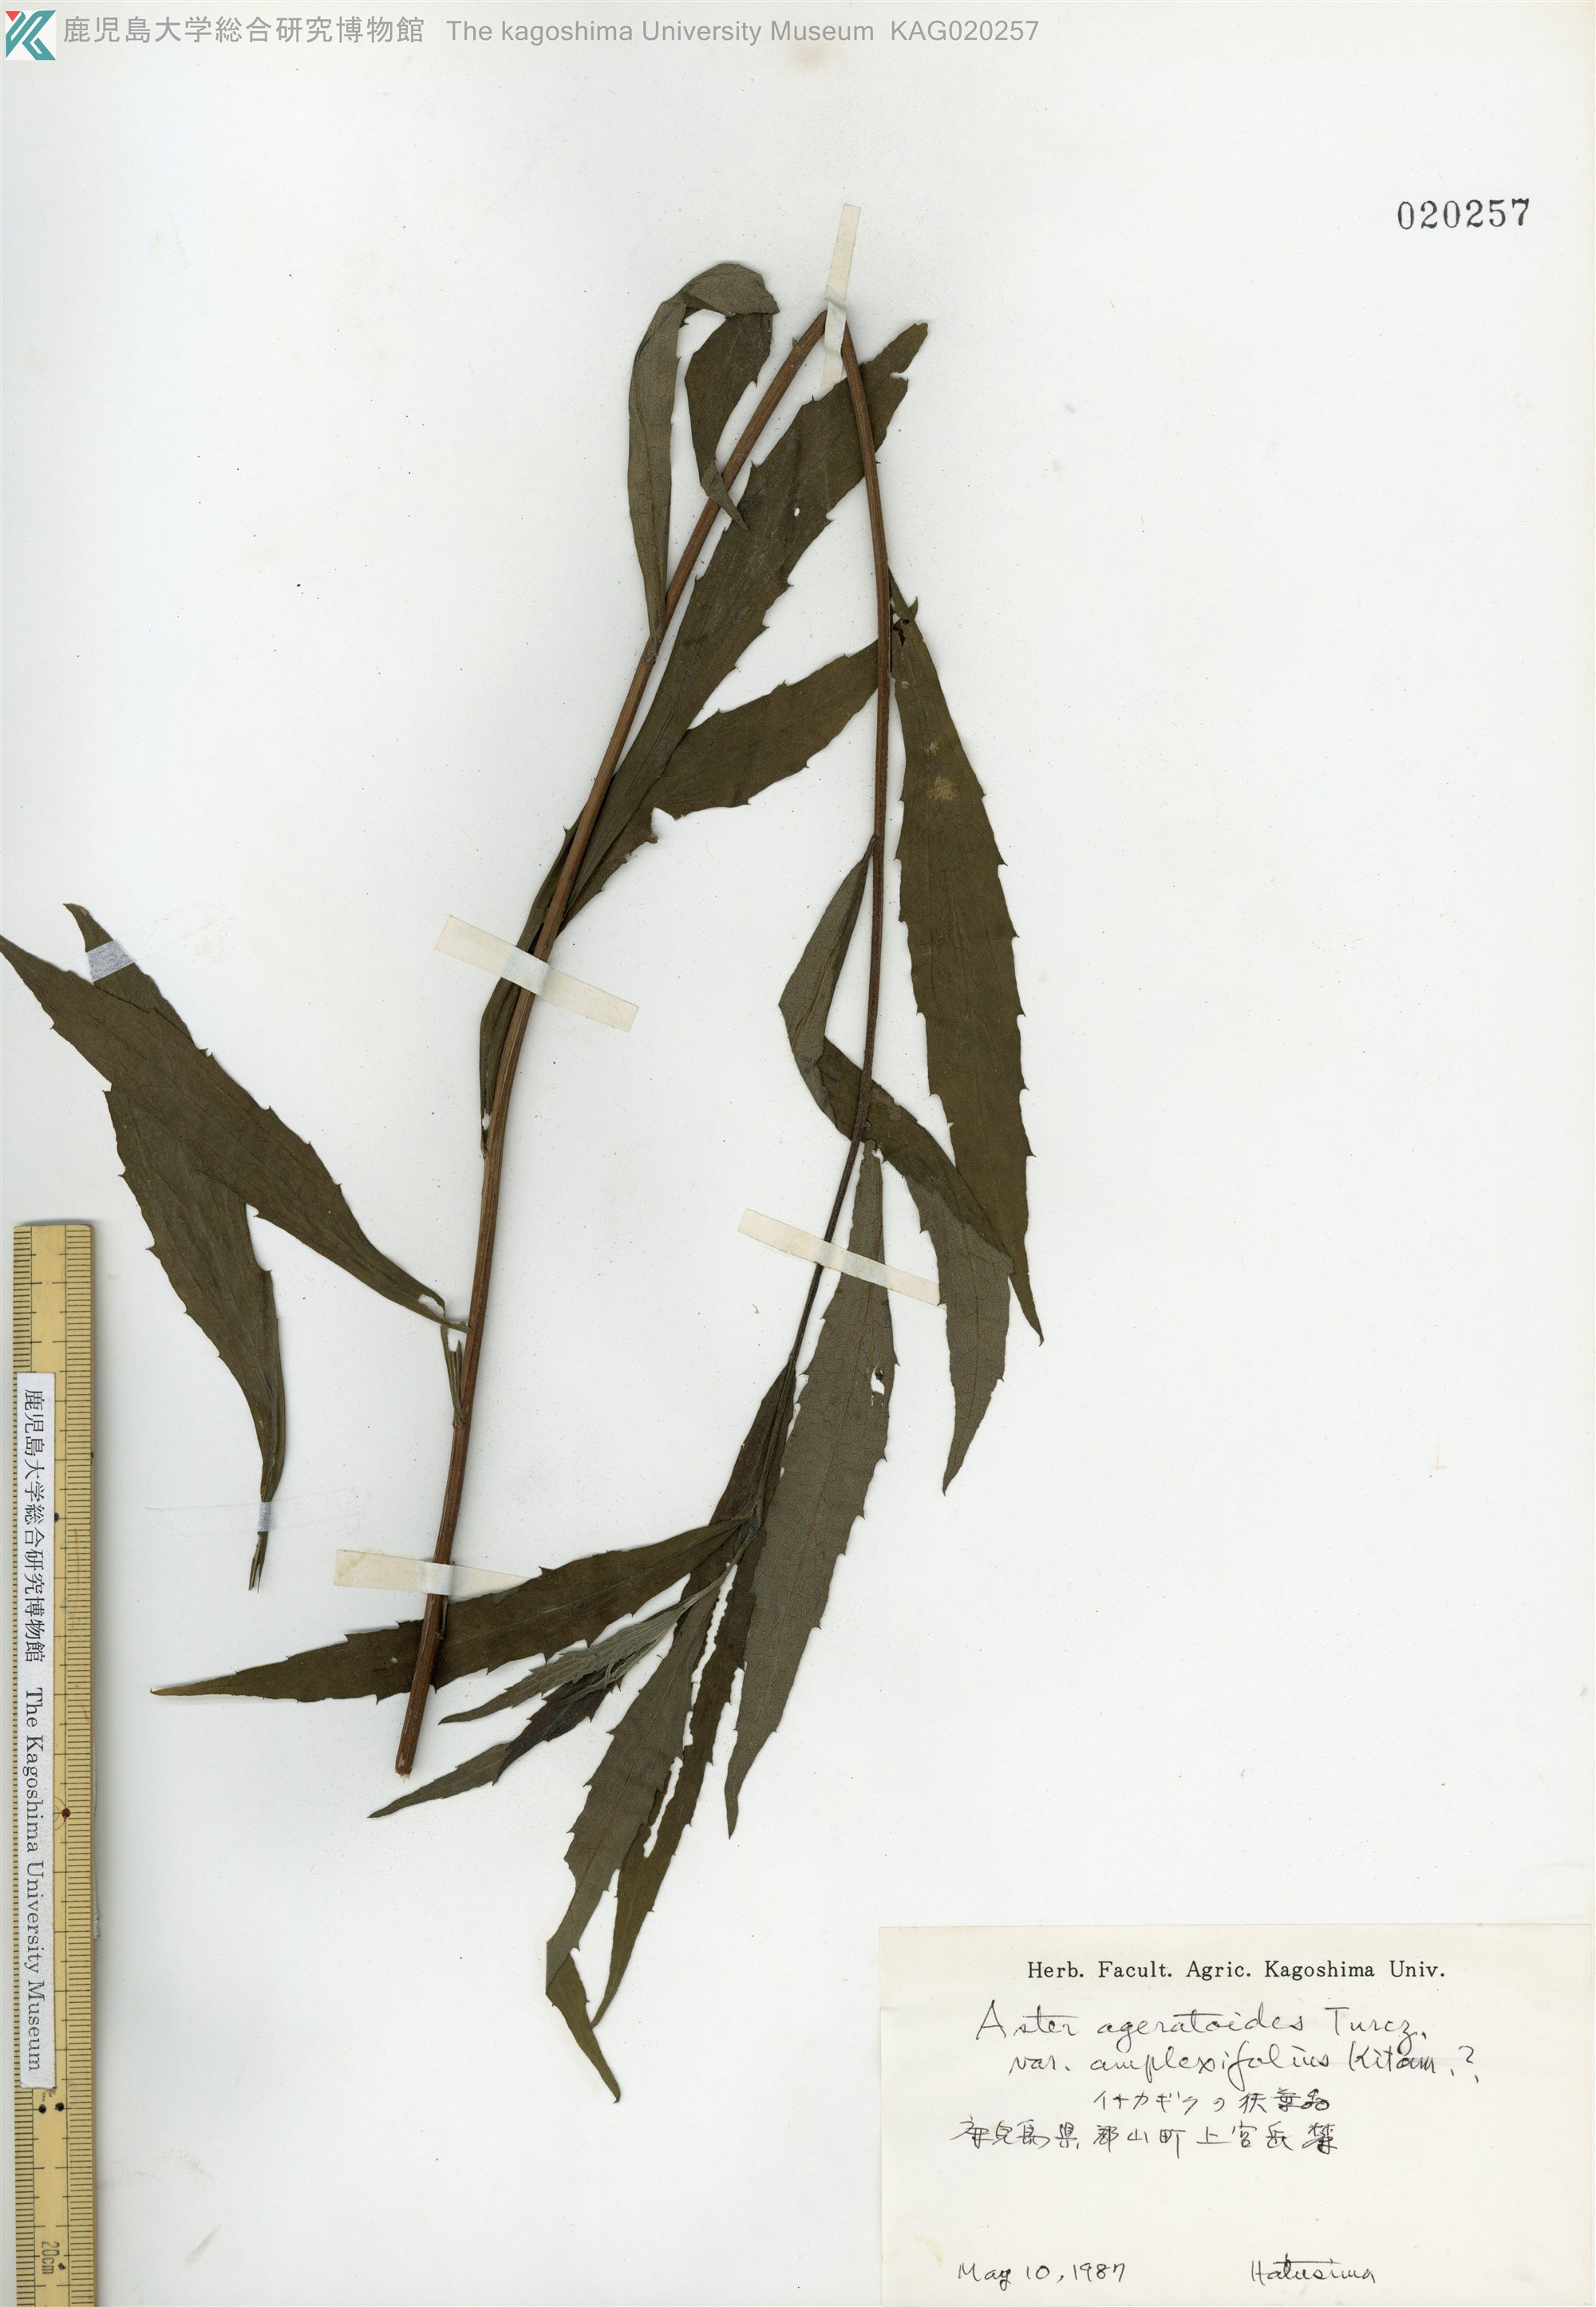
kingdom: Plantae
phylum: Tracheophyta
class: Magnoliopsida
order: Asterales
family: Asteraceae
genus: Aster
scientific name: Aster microcephalus
